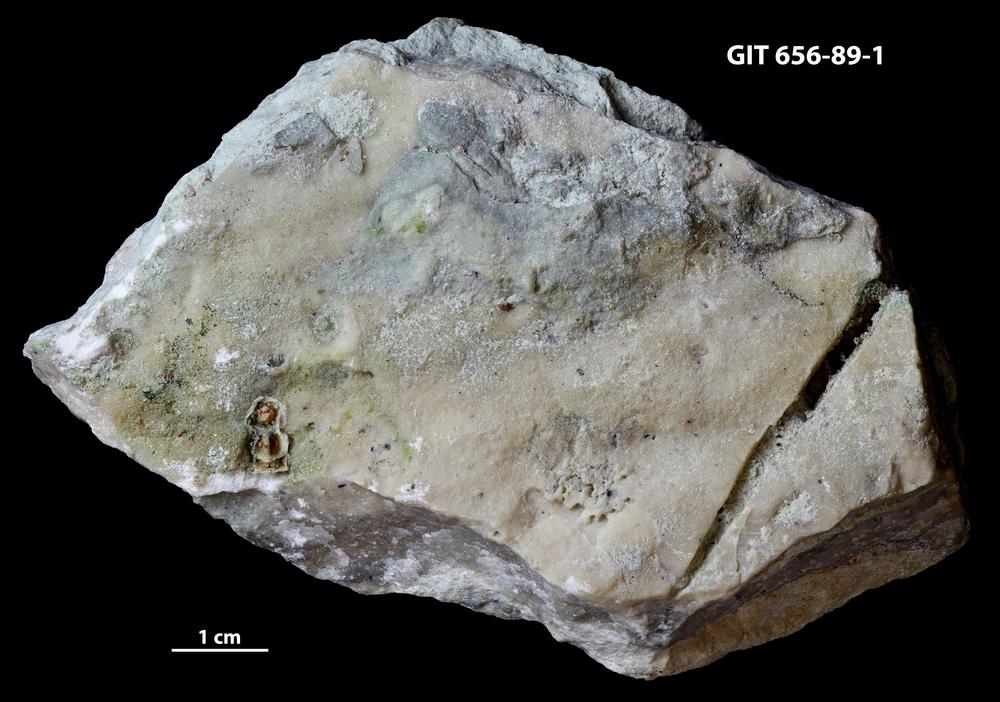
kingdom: Animalia
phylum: Porifera
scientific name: Porifera
